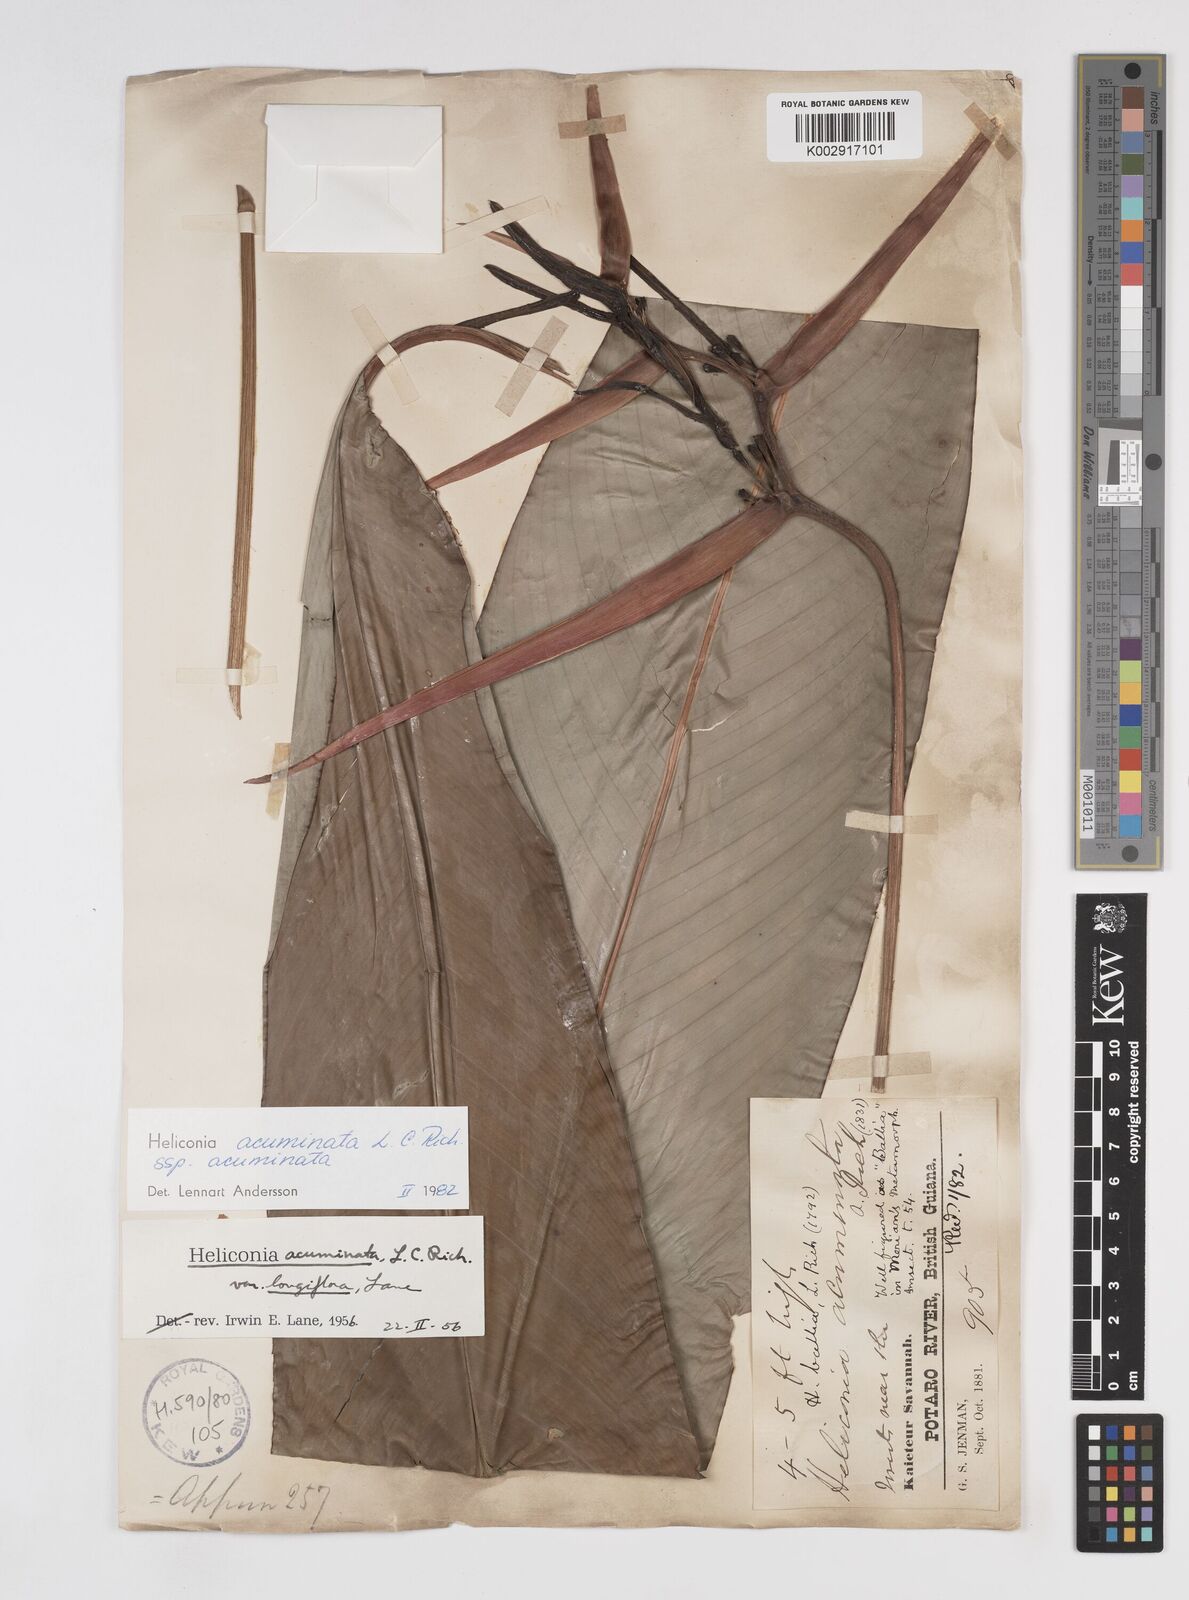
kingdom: Plantae
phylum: Tracheophyta
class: Liliopsida
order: Zingiberales
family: Heliconiaceae
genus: Heliconia
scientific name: Heliconia acuminata
